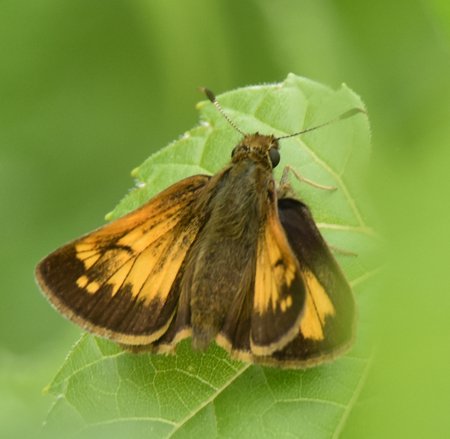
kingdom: Animalia
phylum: Arthropoda
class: Insecta
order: Lepidoptera
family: Hesperiidae
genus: Lon
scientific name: Lon hobomok
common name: Hobomok Skipper
